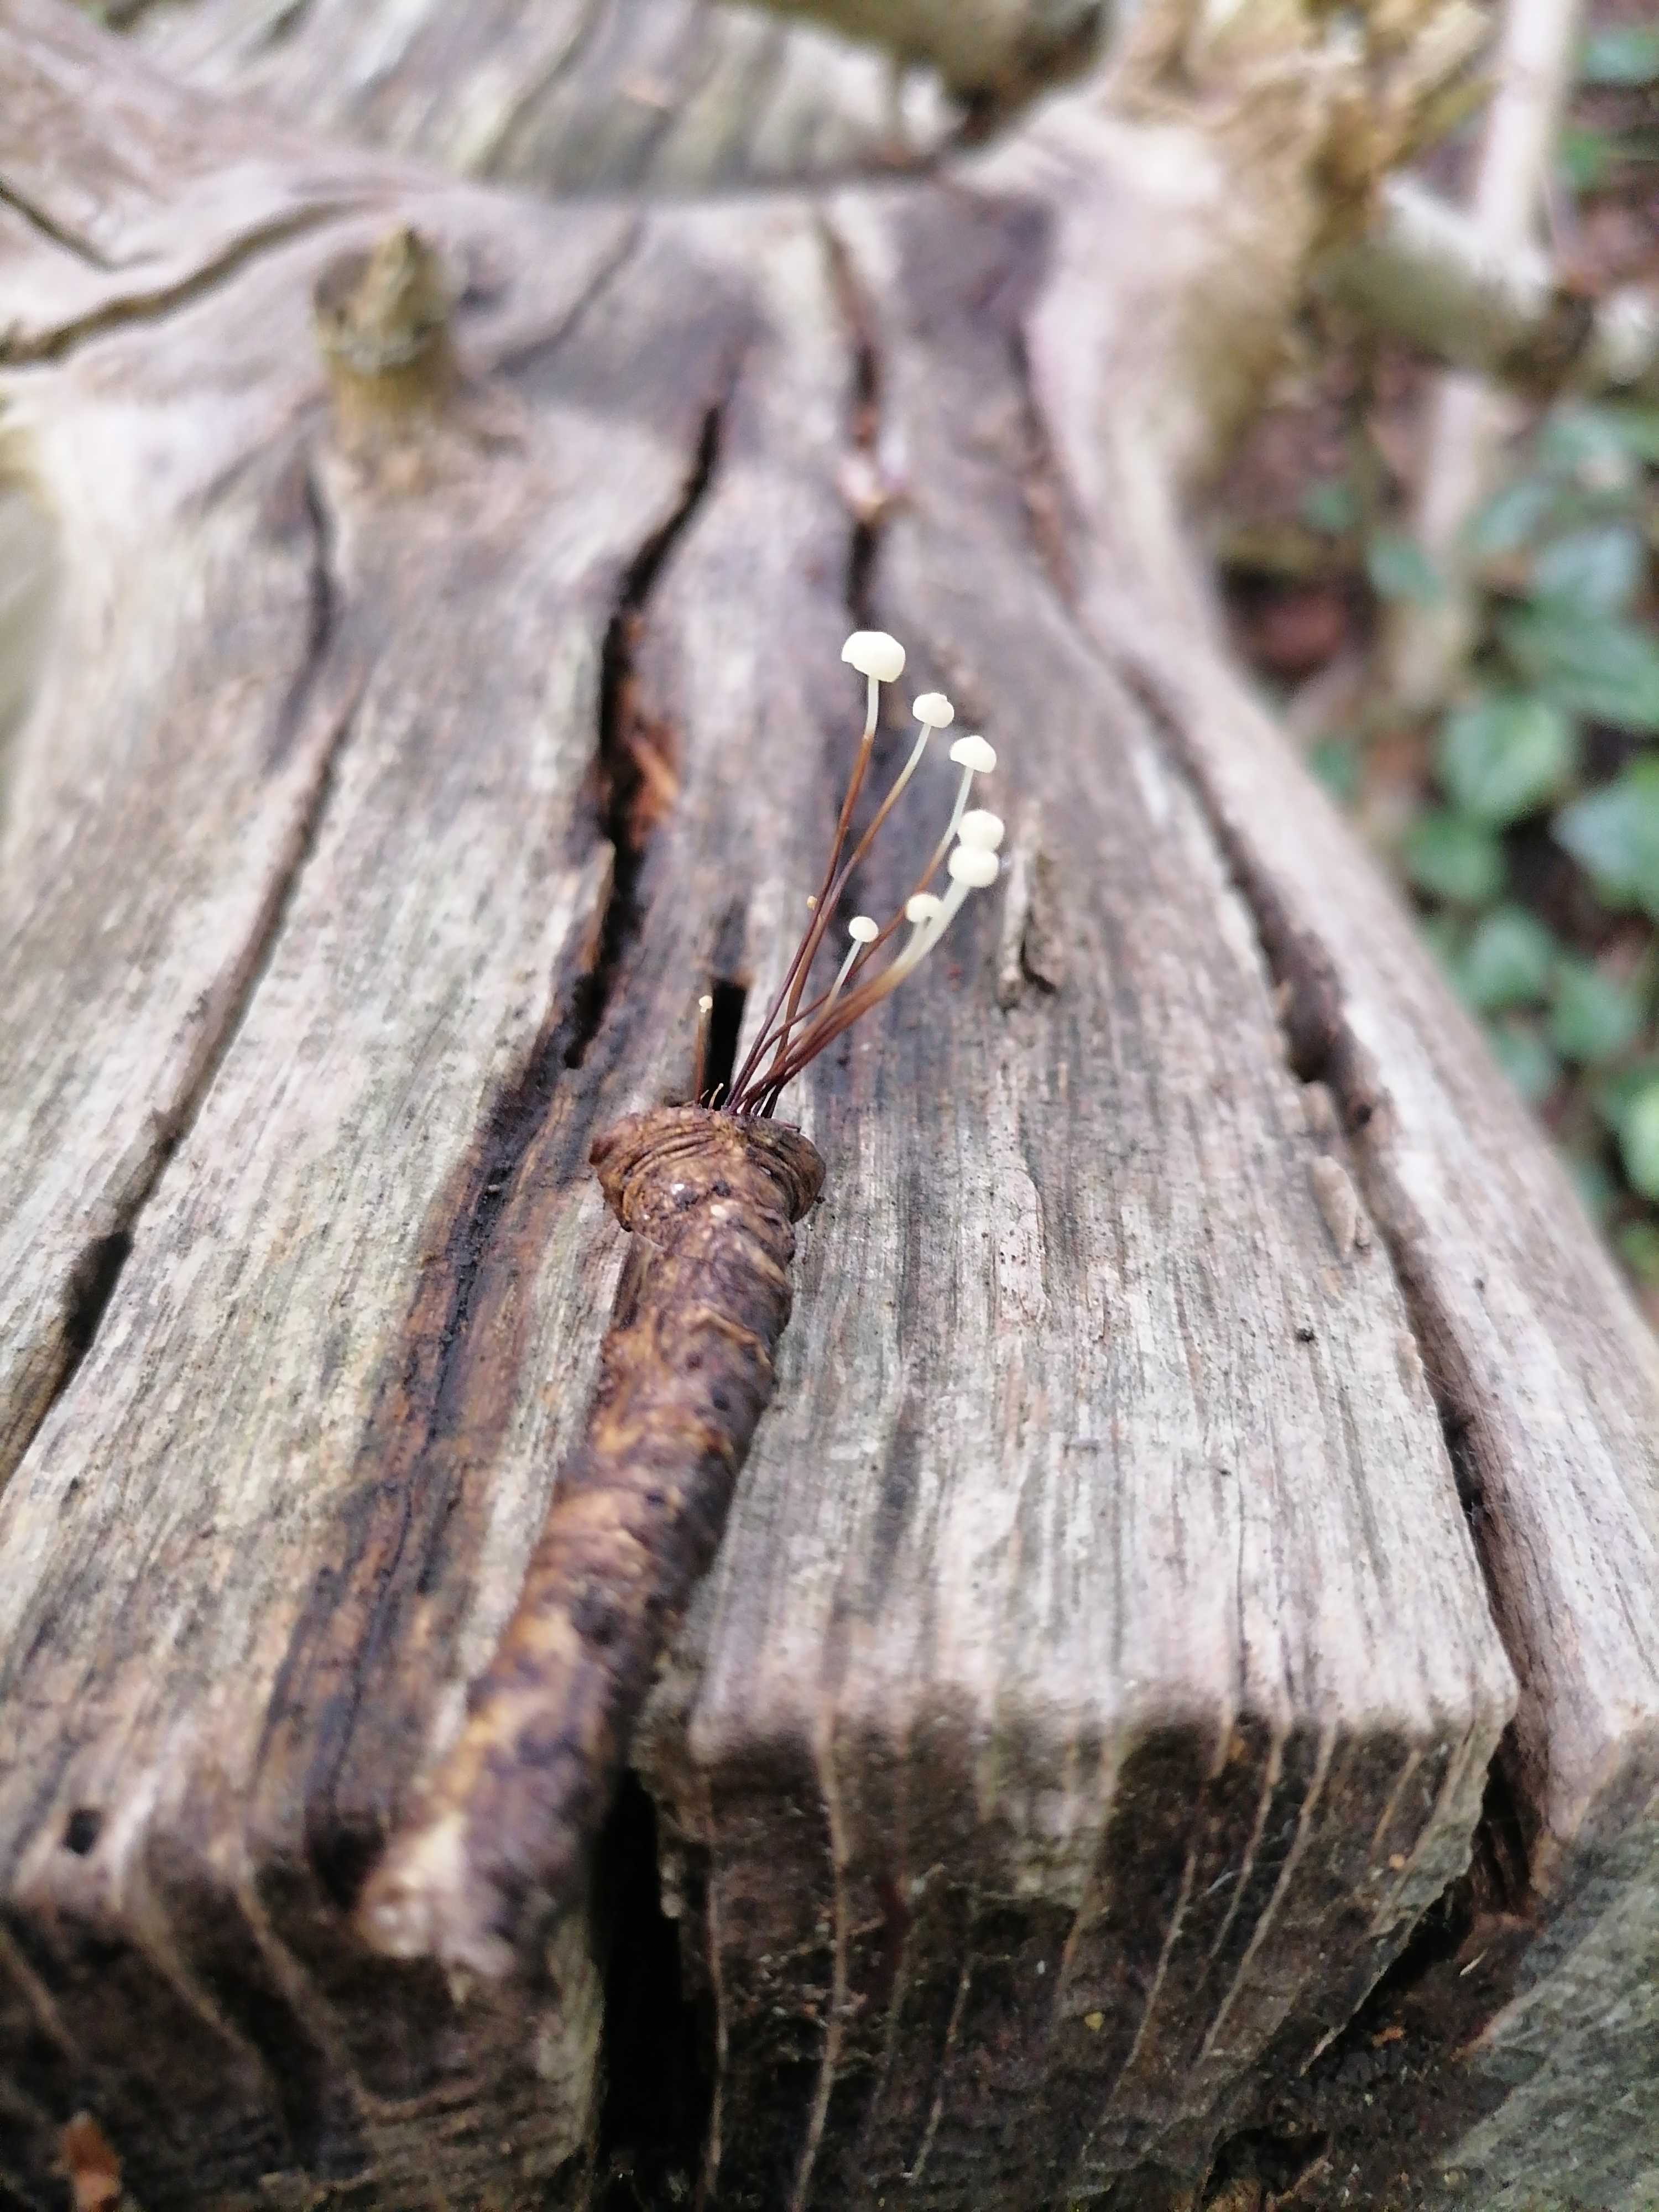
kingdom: Fungi
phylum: Basidiomycota
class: Agaricomycetes
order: Agaricales
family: Marasmiaceae
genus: Marasmius
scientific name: Marasmius rotula
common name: hjul-bruskhat
